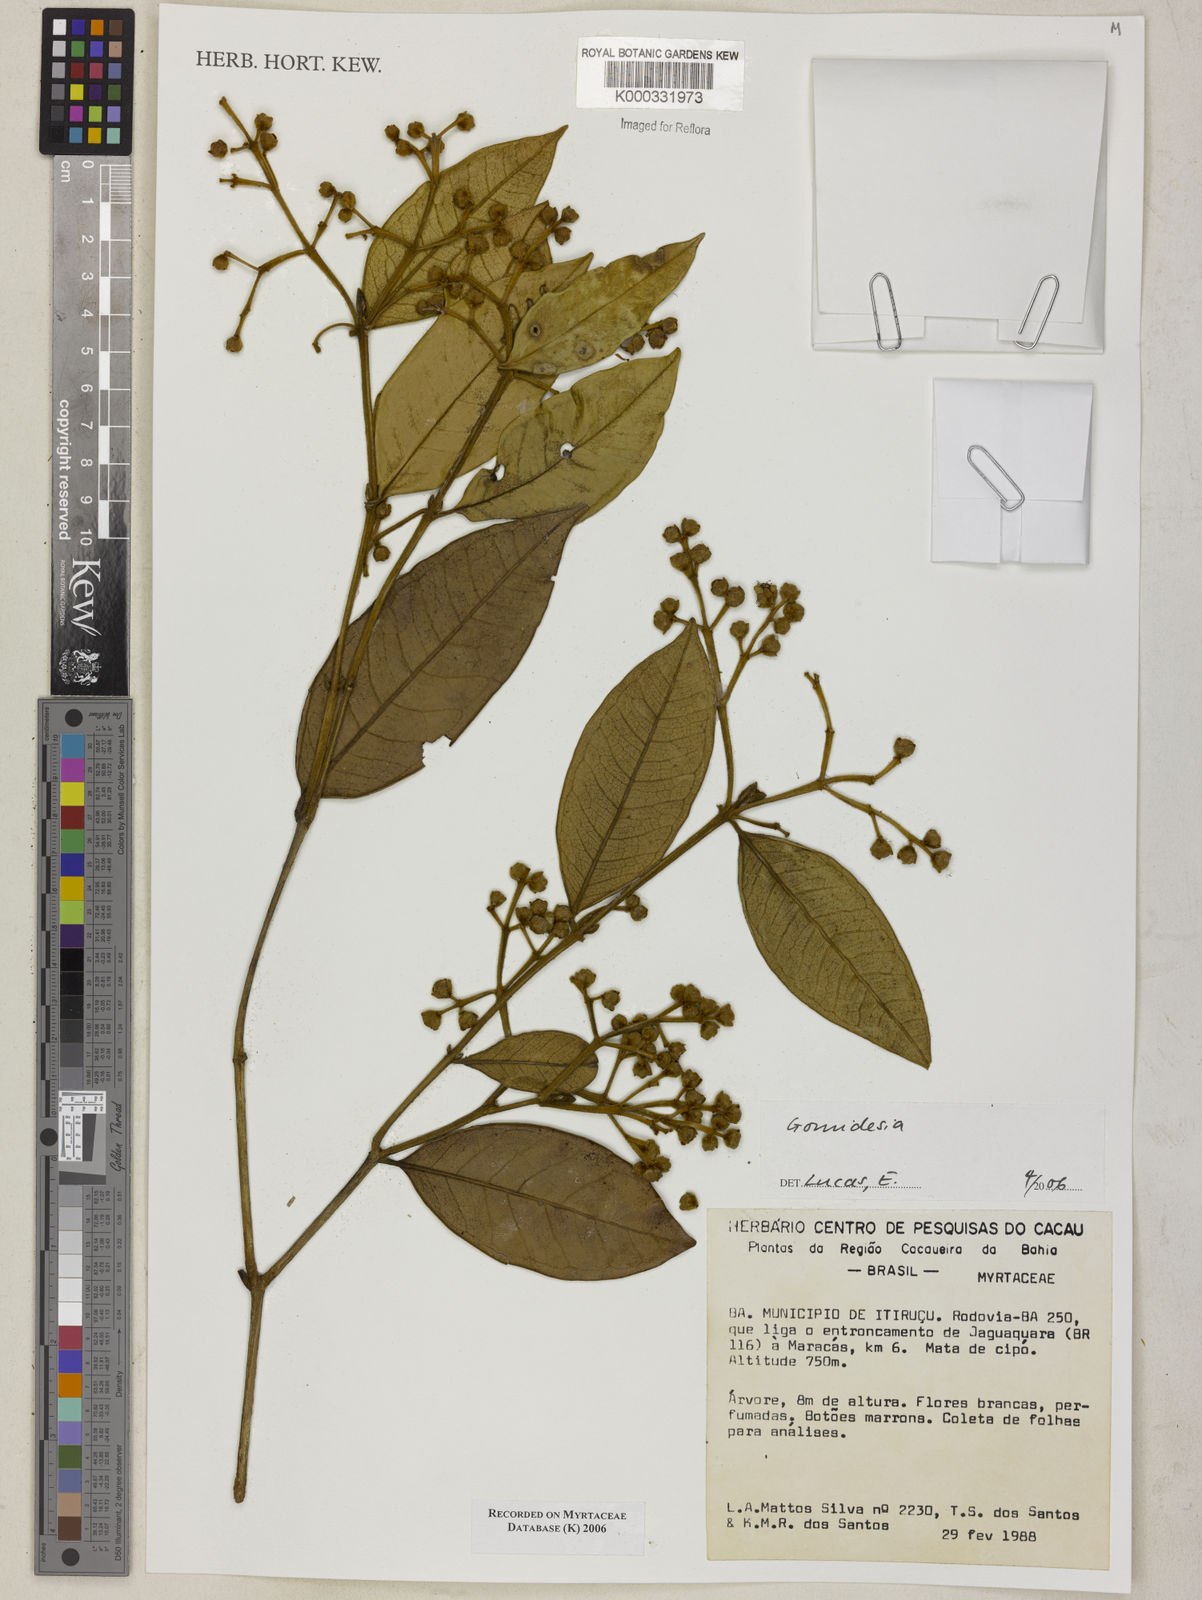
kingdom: Plantae
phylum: Tracheophyta
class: Magnoliopsida
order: Myrtales
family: Myrtaceae
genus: Myrcia
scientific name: Myrcia
